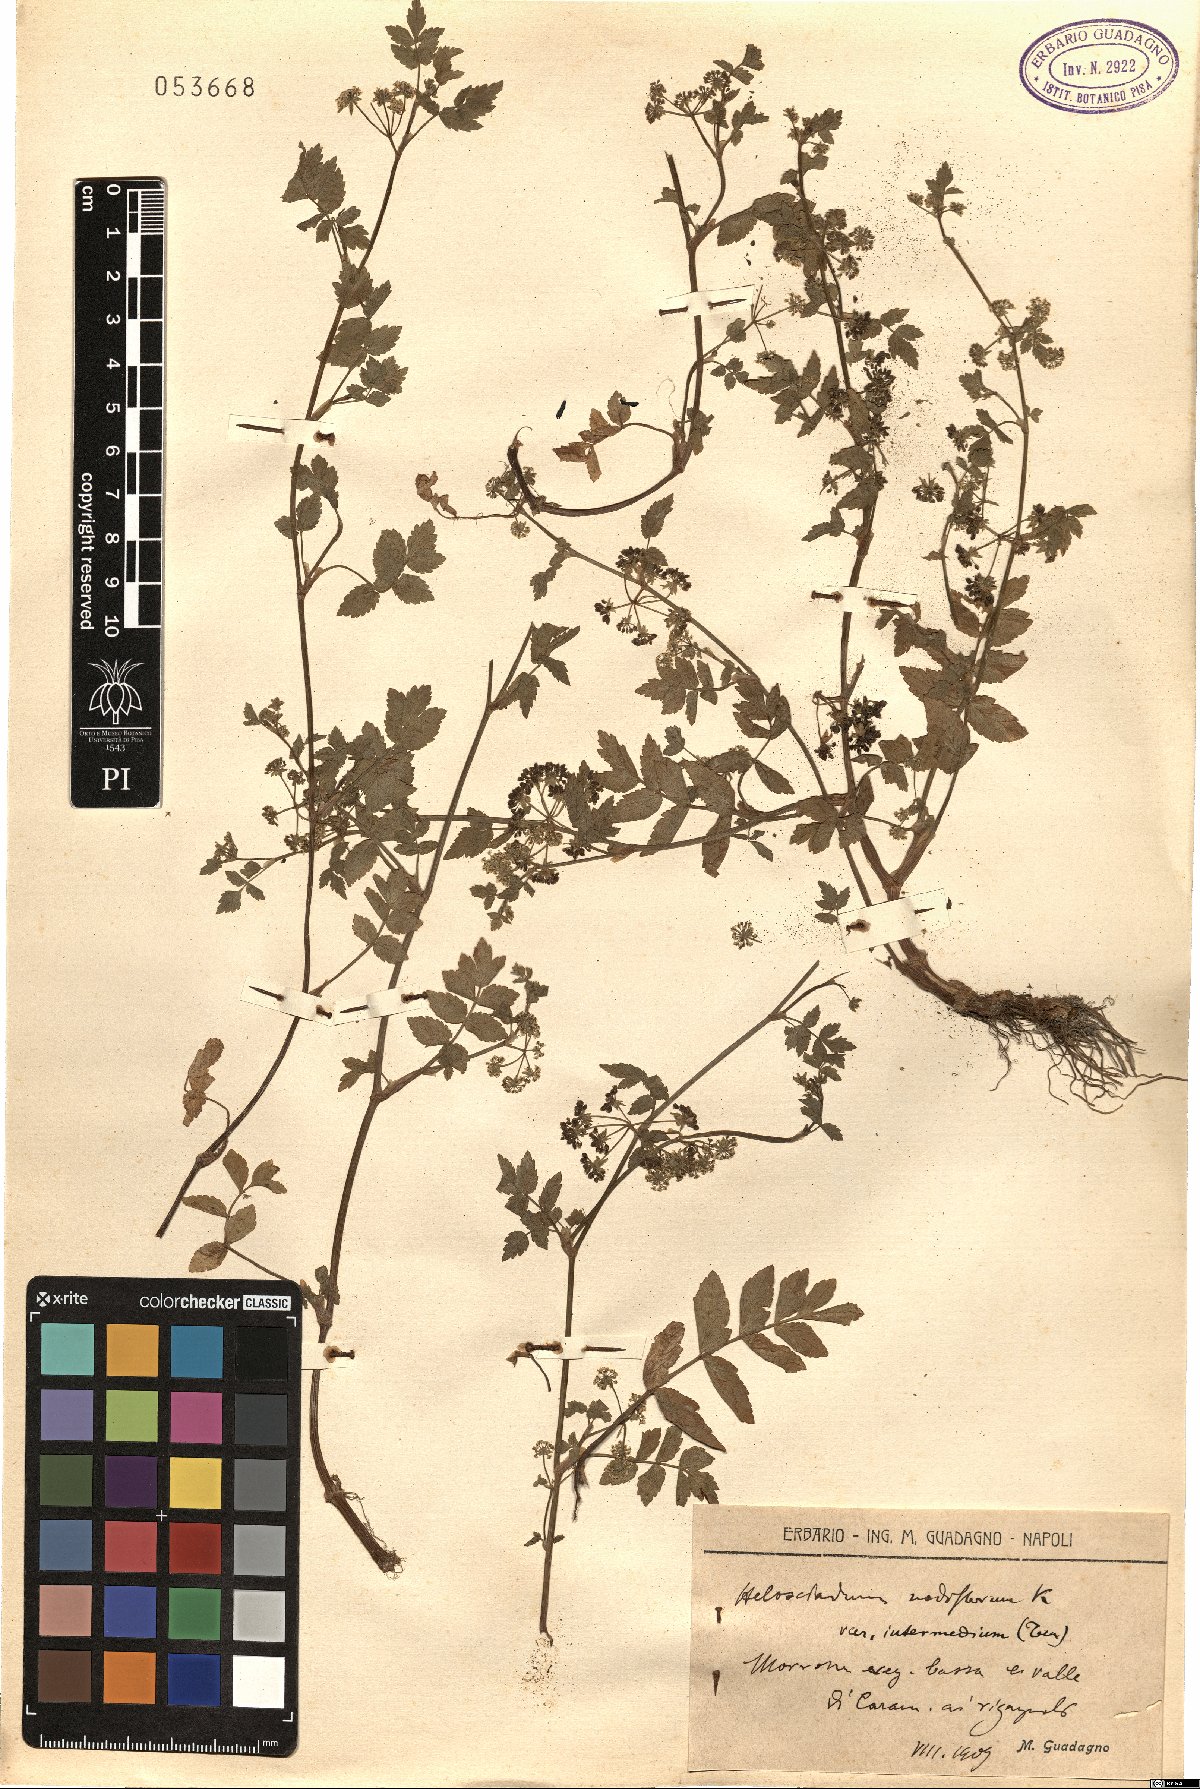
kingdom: Plantae
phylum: Tracheophyta
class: Magnoliopsida
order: Apiales
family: Apiaceae
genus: Helosciadium
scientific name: Helosciadium nodiflorum
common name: Fool's-watercress
